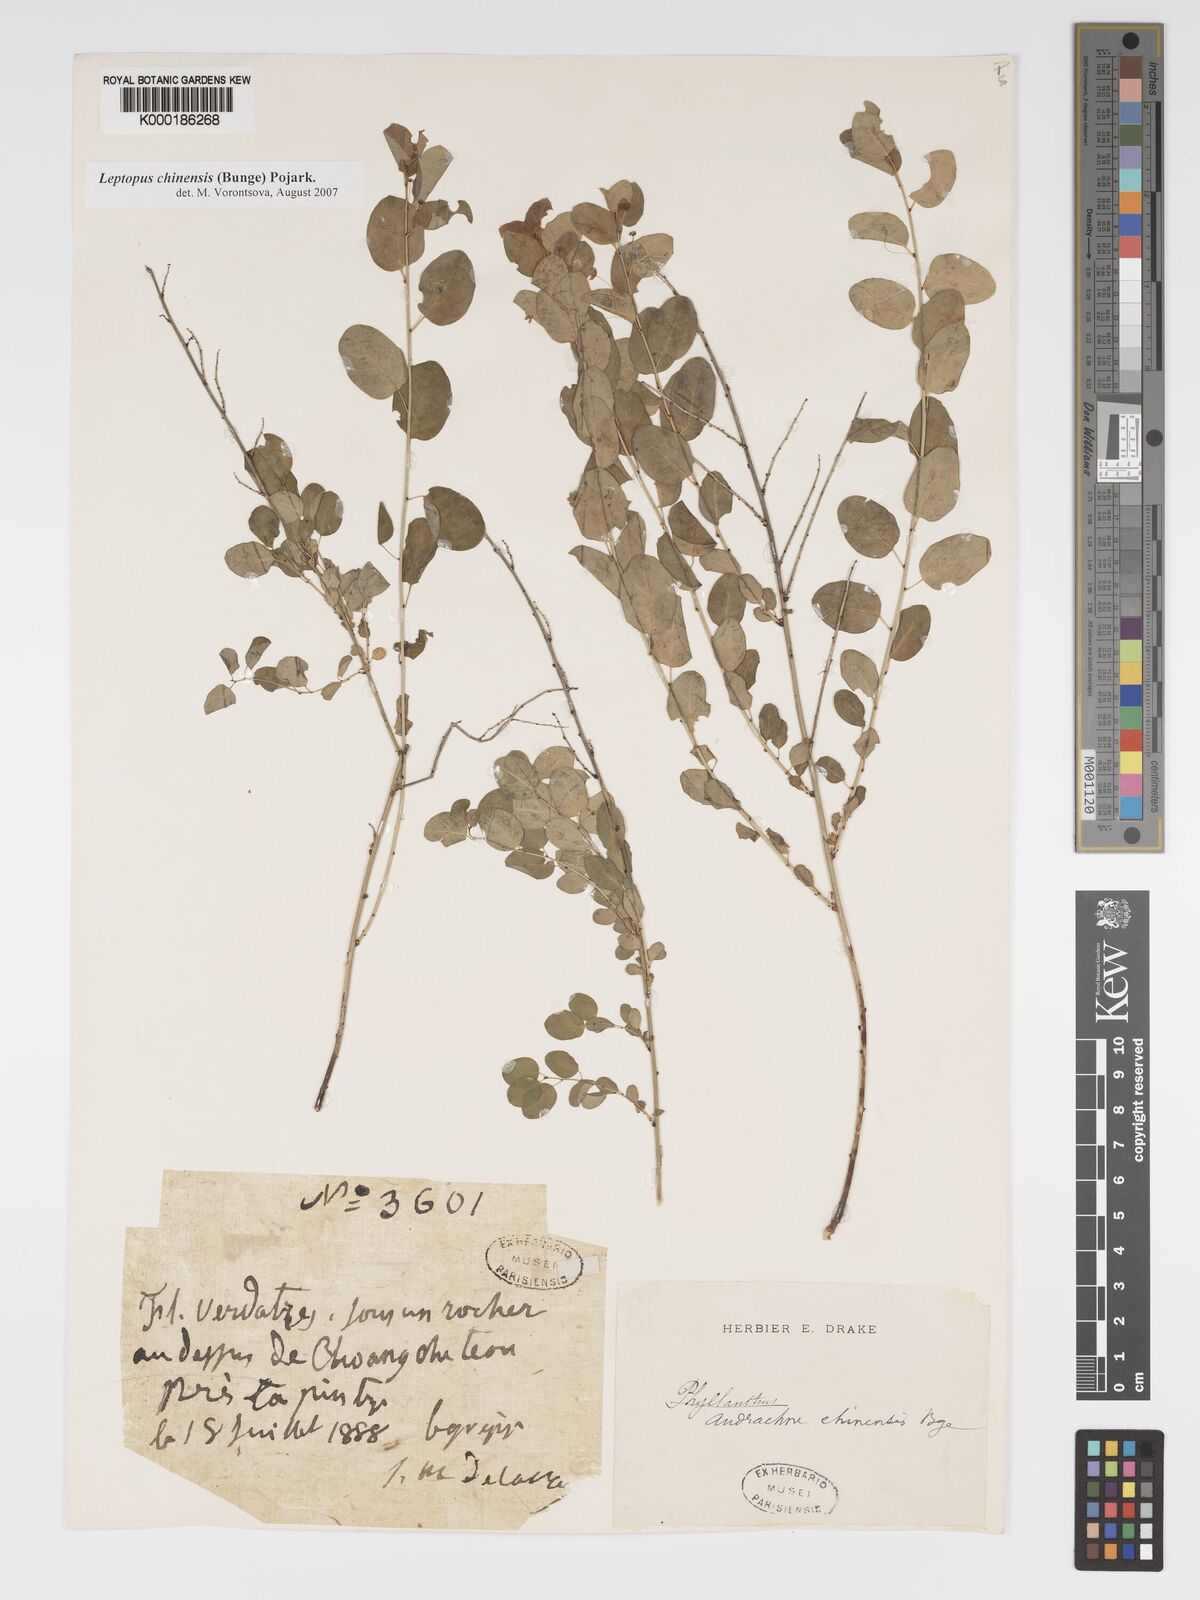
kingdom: Plantae
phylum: Tracheophyta
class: Magnoliopsida
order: Malpighiales
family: Phyllanthaceae
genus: Leptopus
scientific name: Leptopus chinensis
